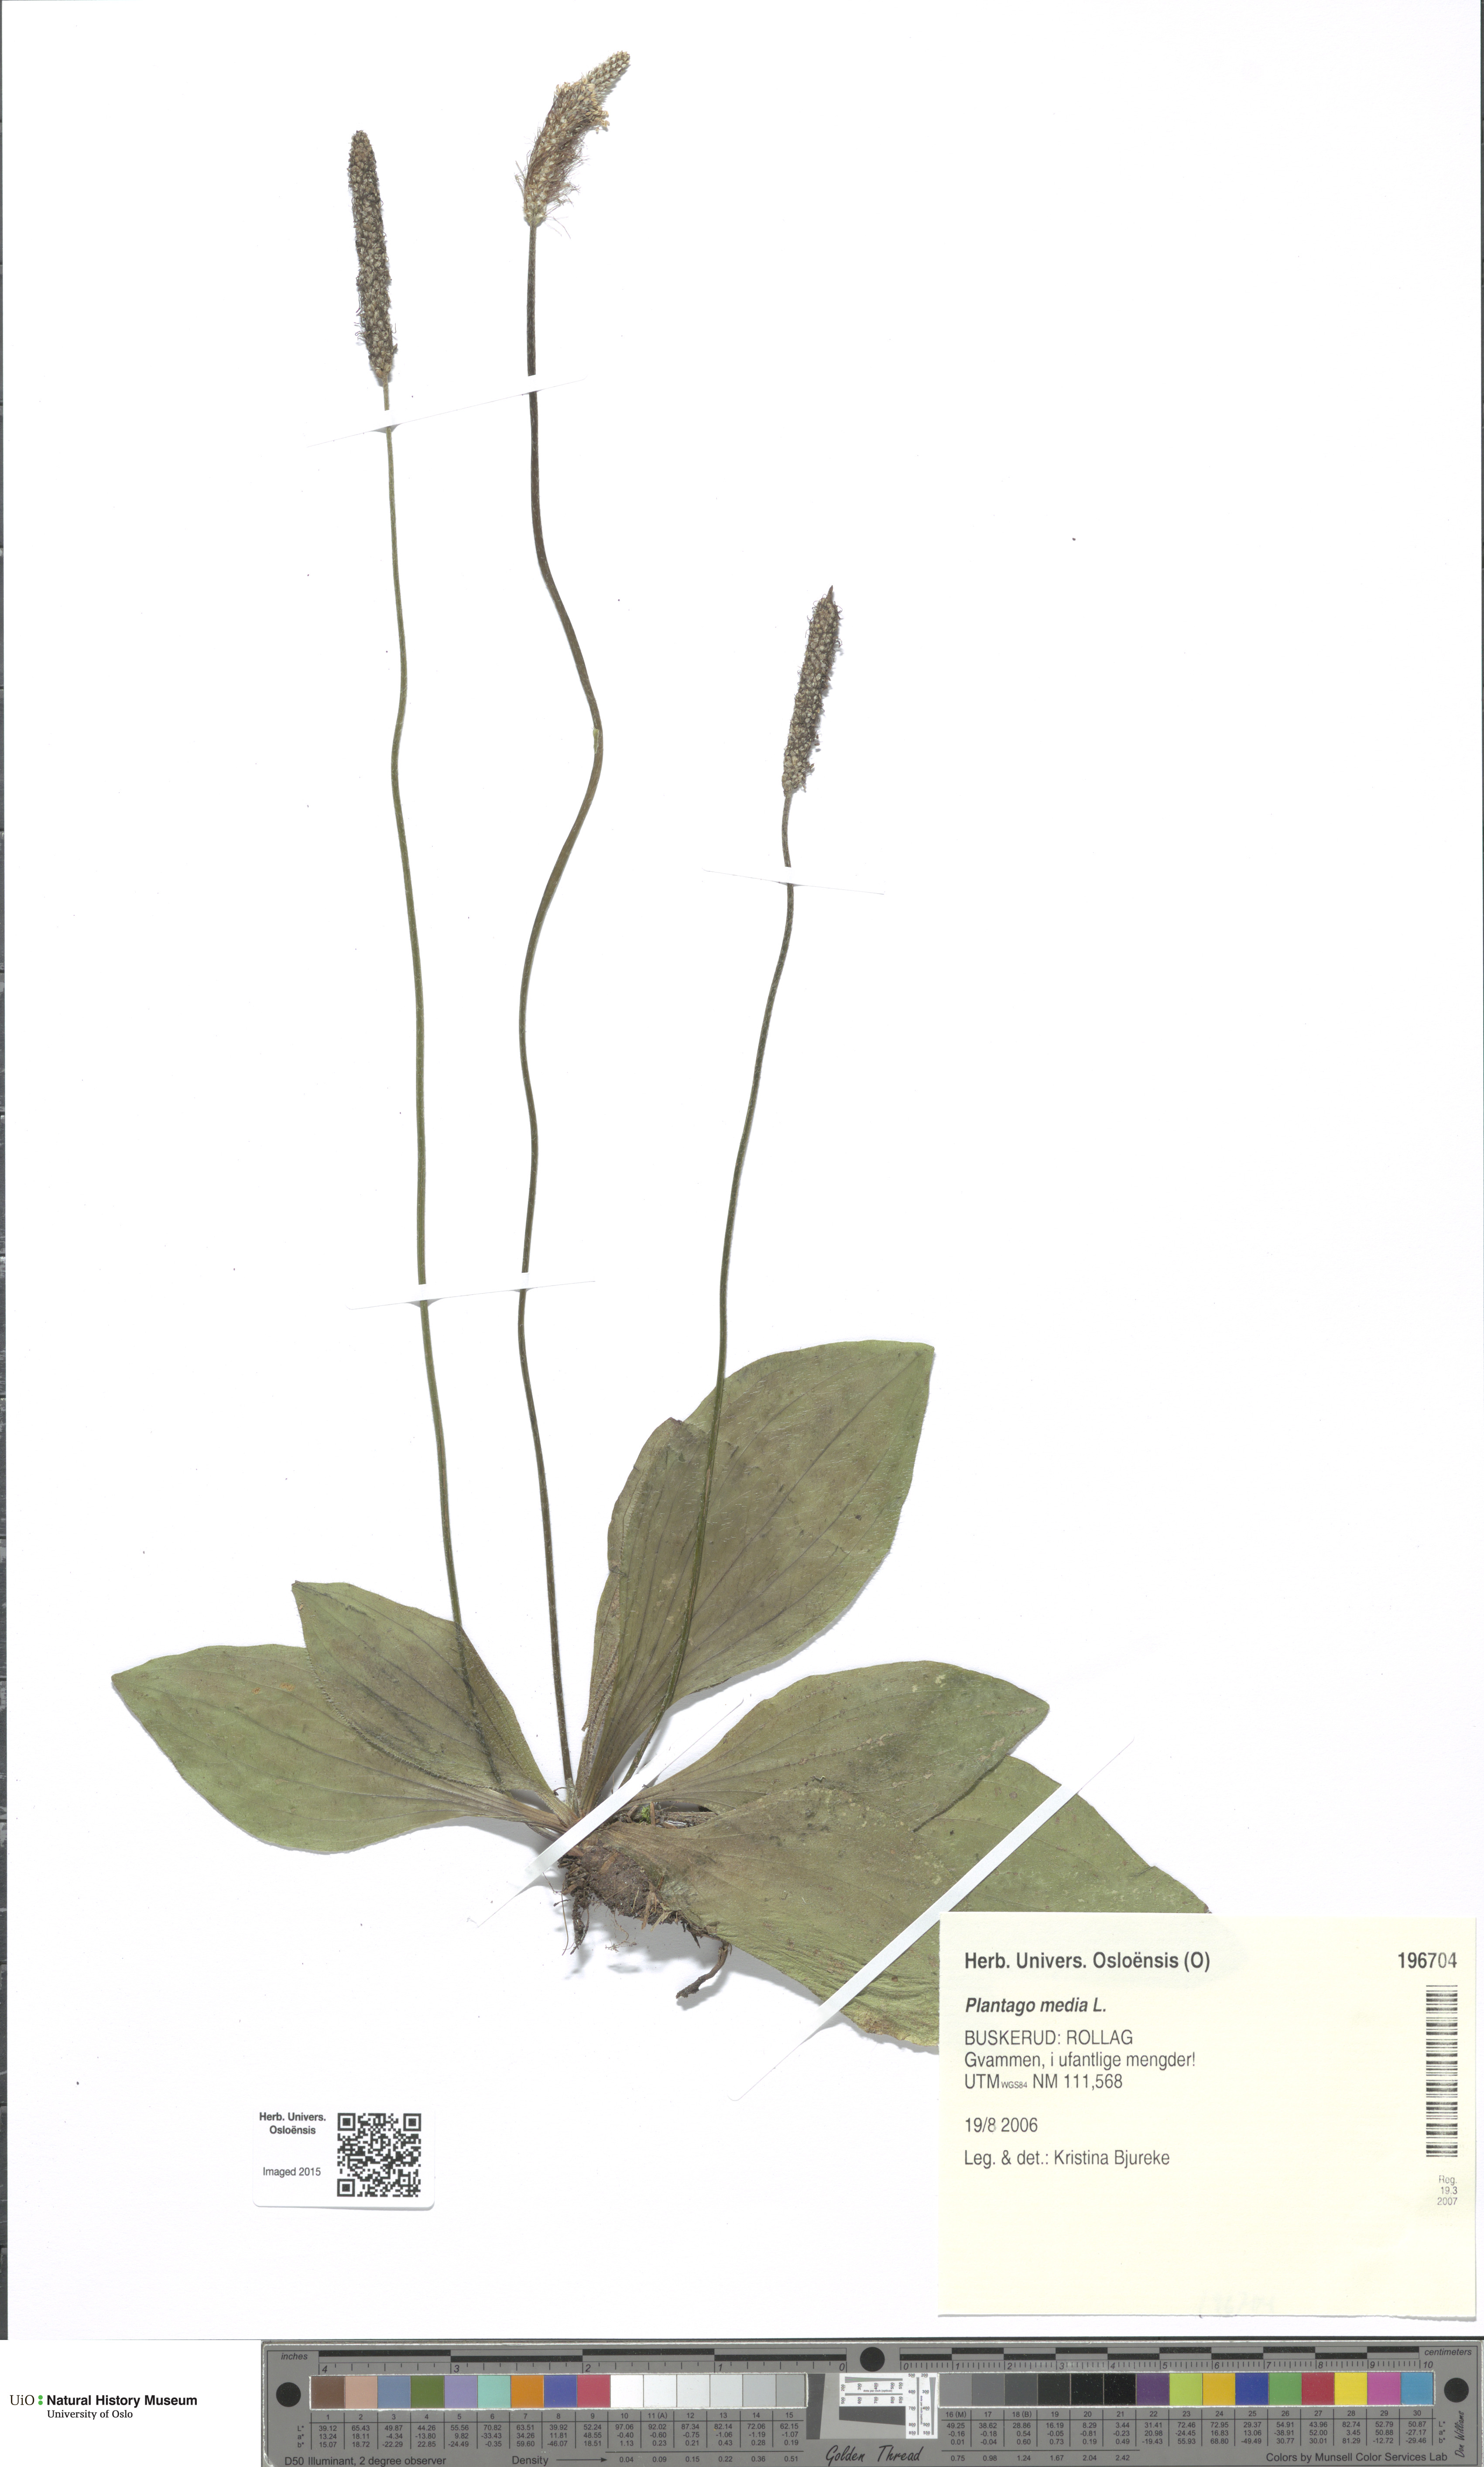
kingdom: Plantae
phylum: Tracheophyta
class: Magnoliopsida
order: Lamiales
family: Plantaginaceae
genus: Plantago
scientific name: Plantago media
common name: Hoary plantain
